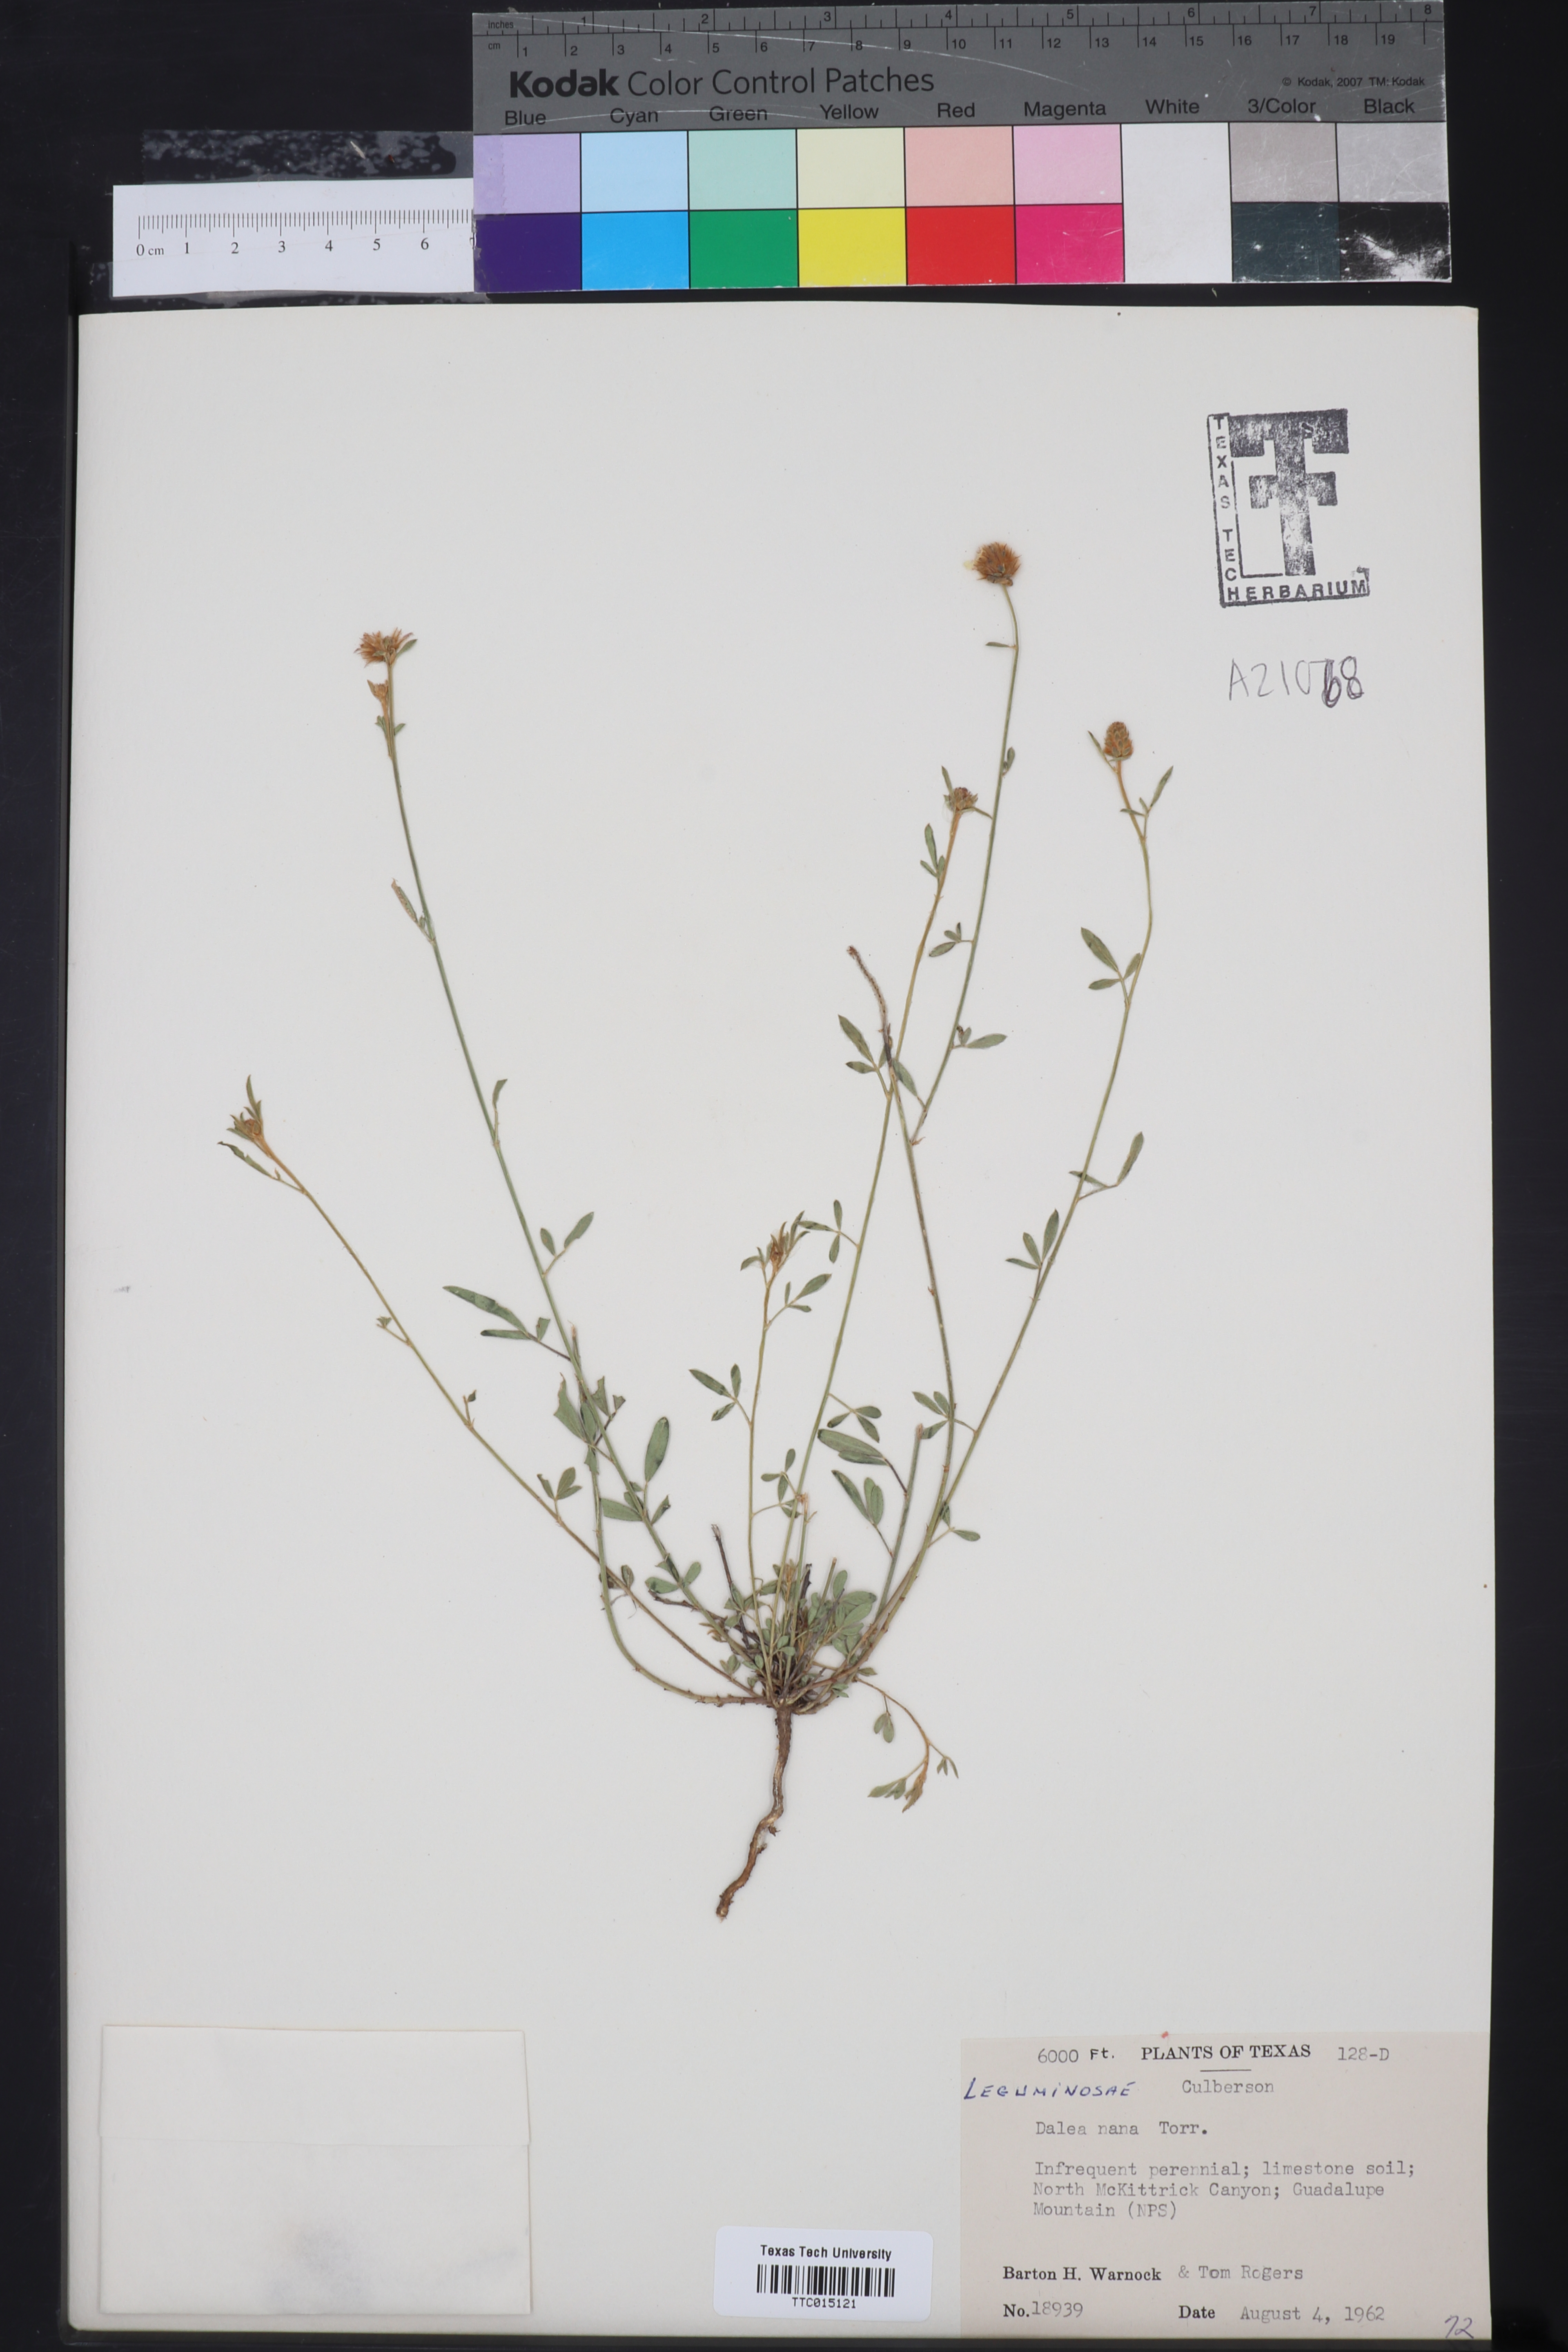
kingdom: Plantae
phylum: Tracheophyta
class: Magnoliopsida
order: Fabales
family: Fabaceae
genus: Dalea
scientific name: Dalea nana
